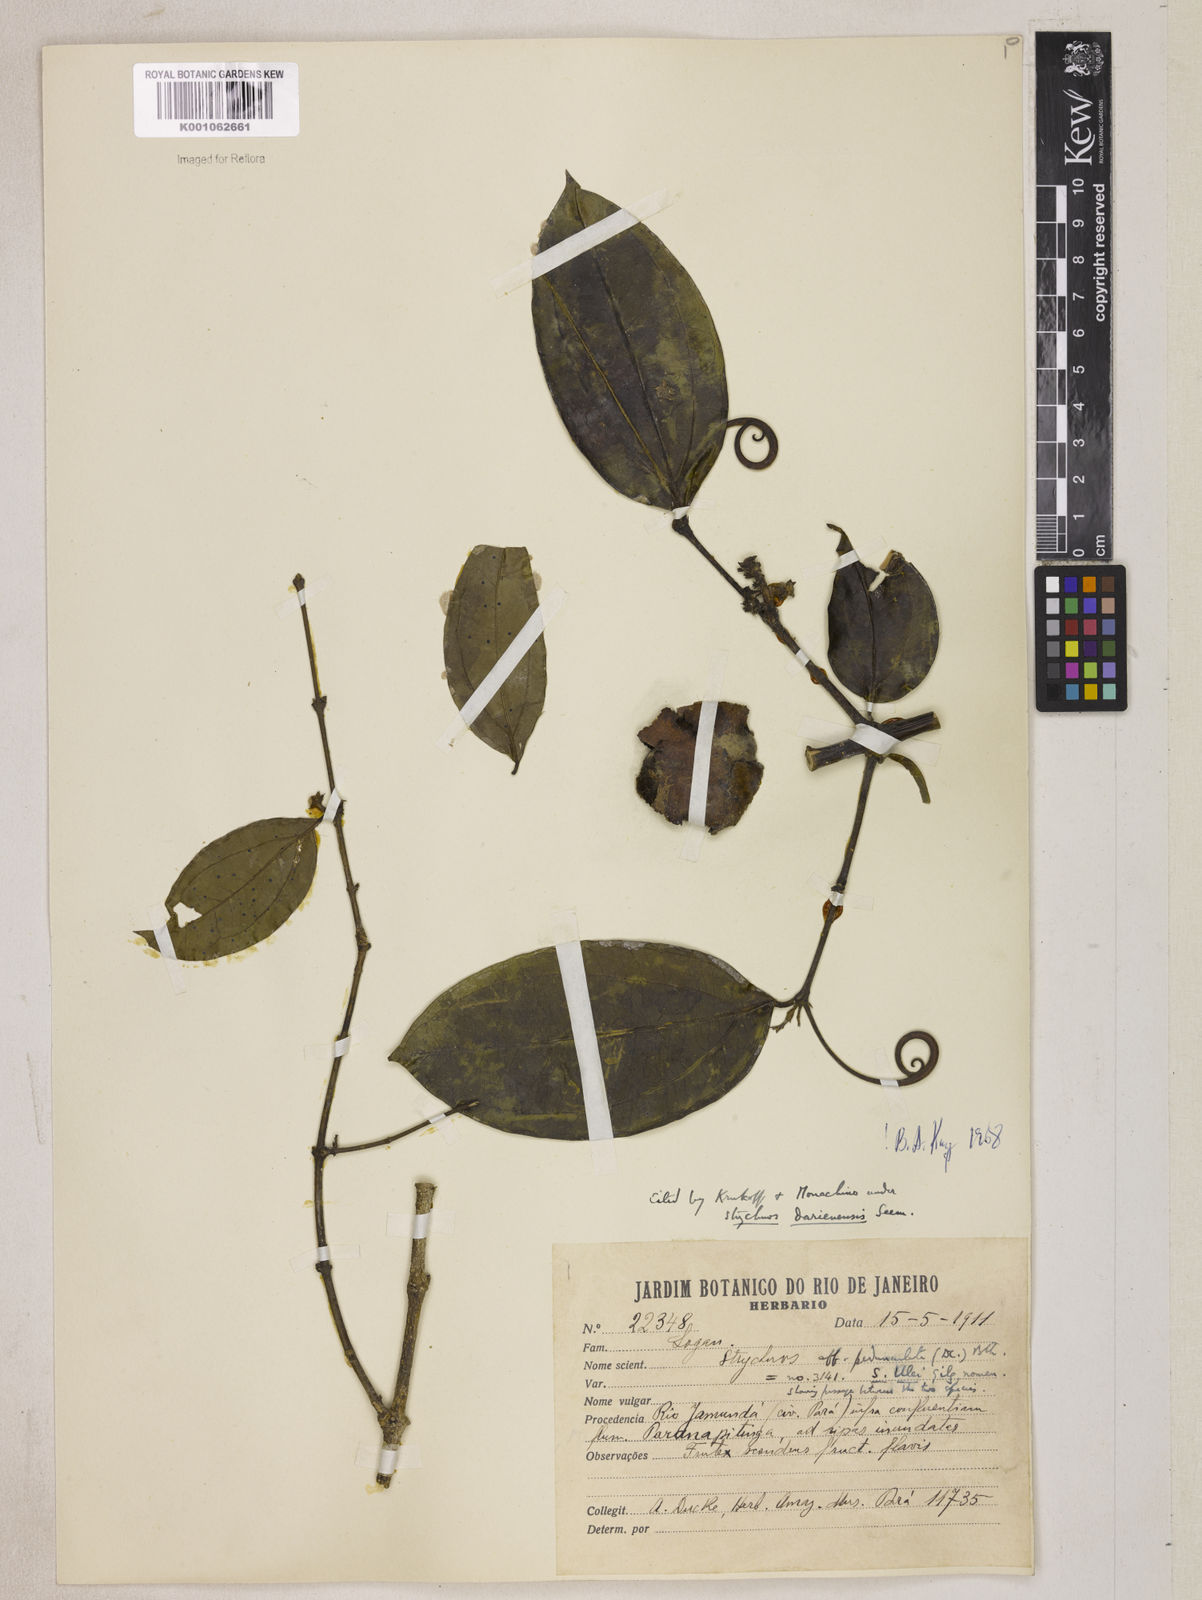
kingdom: Plantae
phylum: Tracheophyta
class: Magnoliopsida
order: Gentianales
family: Loganiaceae
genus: Strychnos
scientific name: Strychnos darienensis
